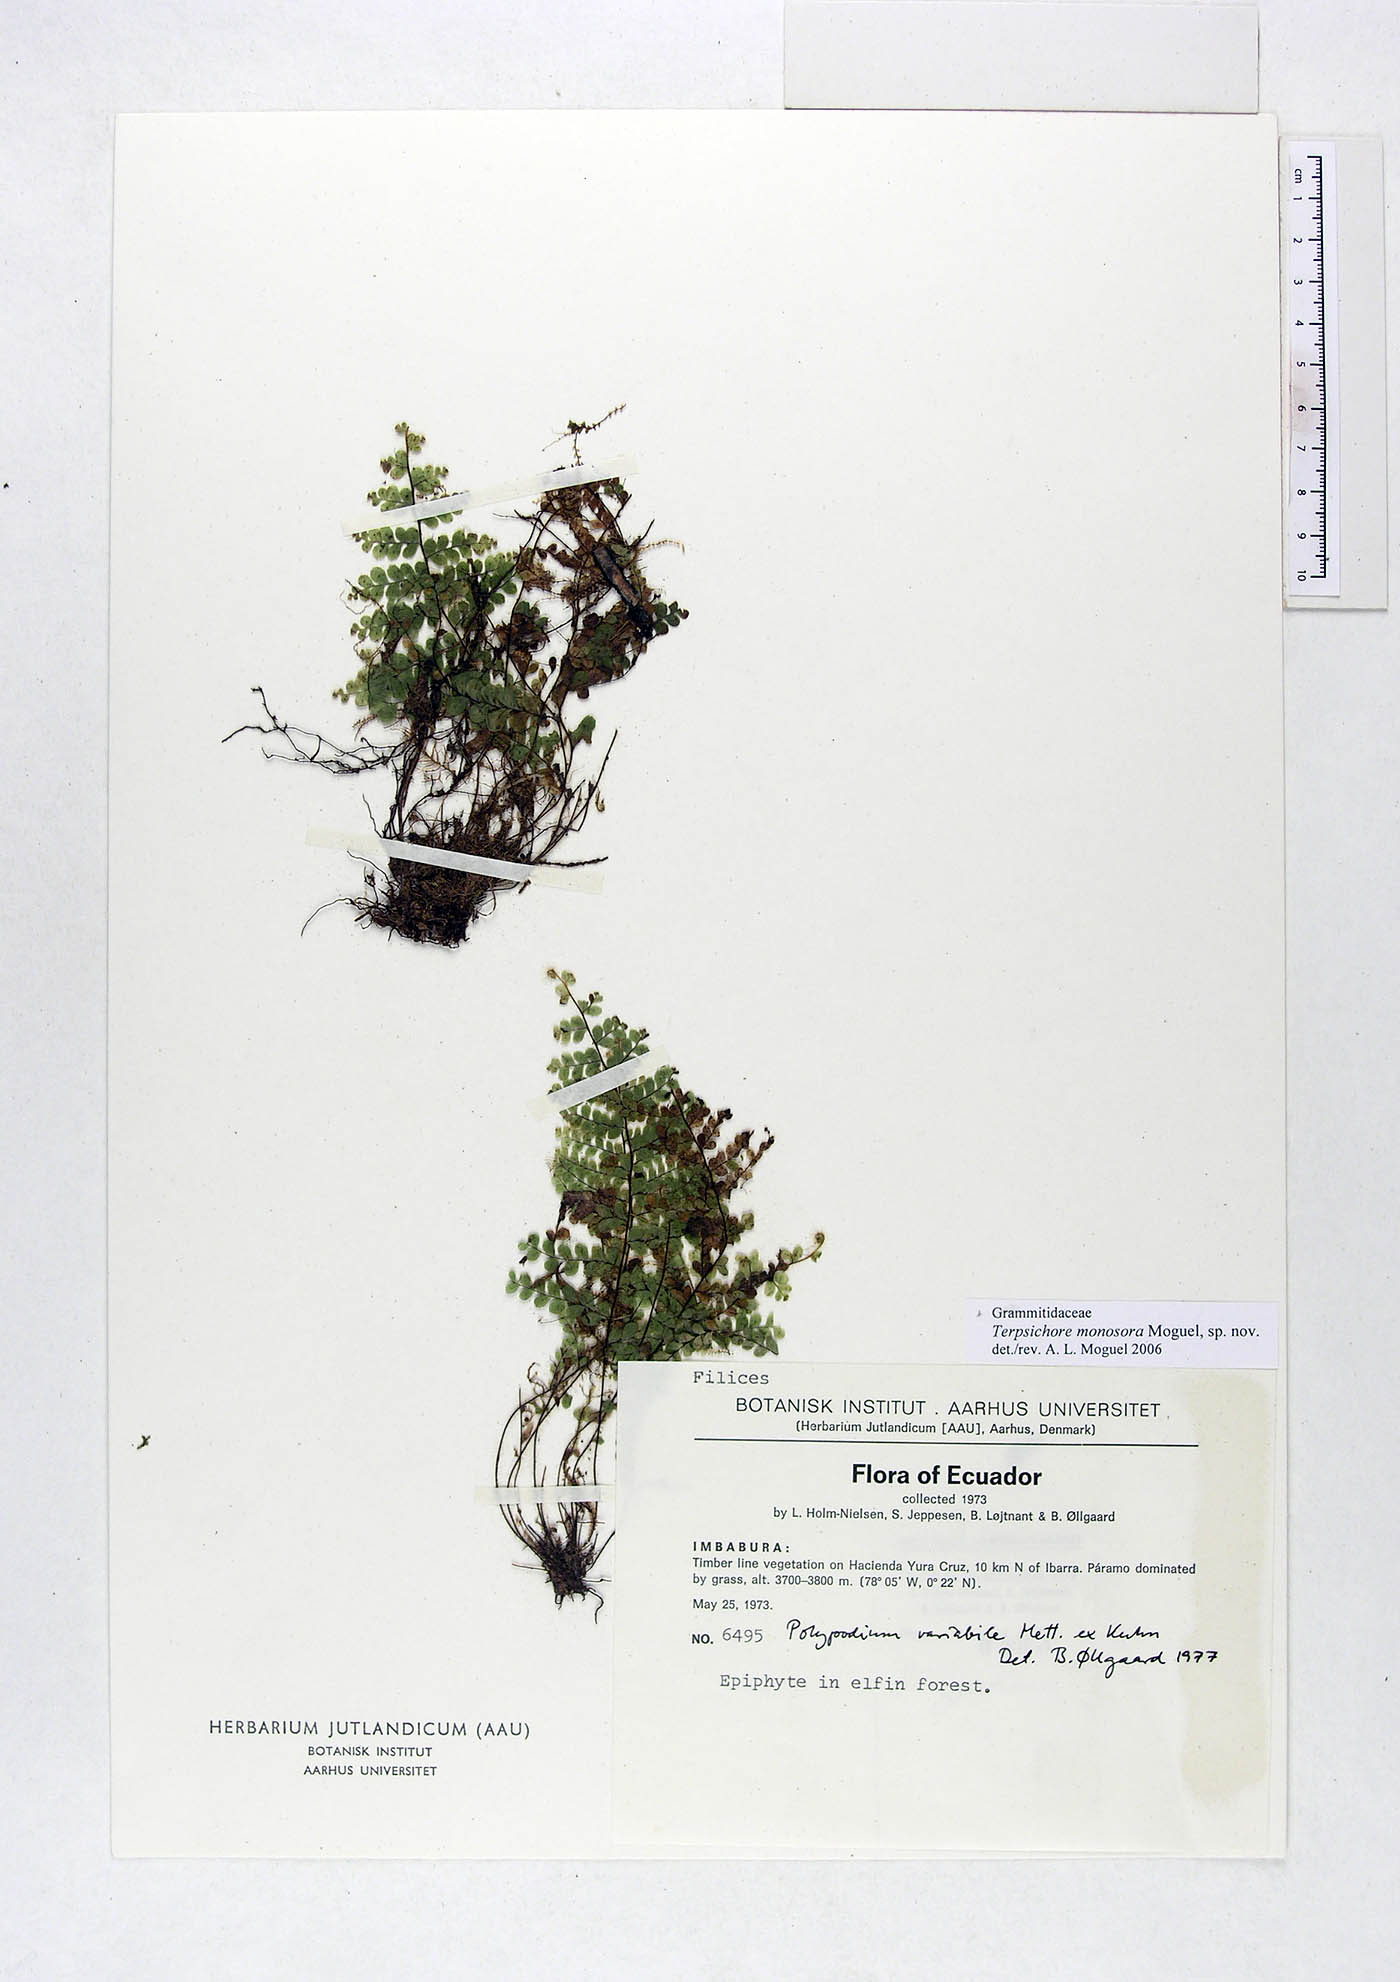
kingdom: Plantae
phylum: Tracheophyta
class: Polypodiopsida
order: Polypodiales
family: Polypodiaceae
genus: Alansmia
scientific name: Alansmia monosora
